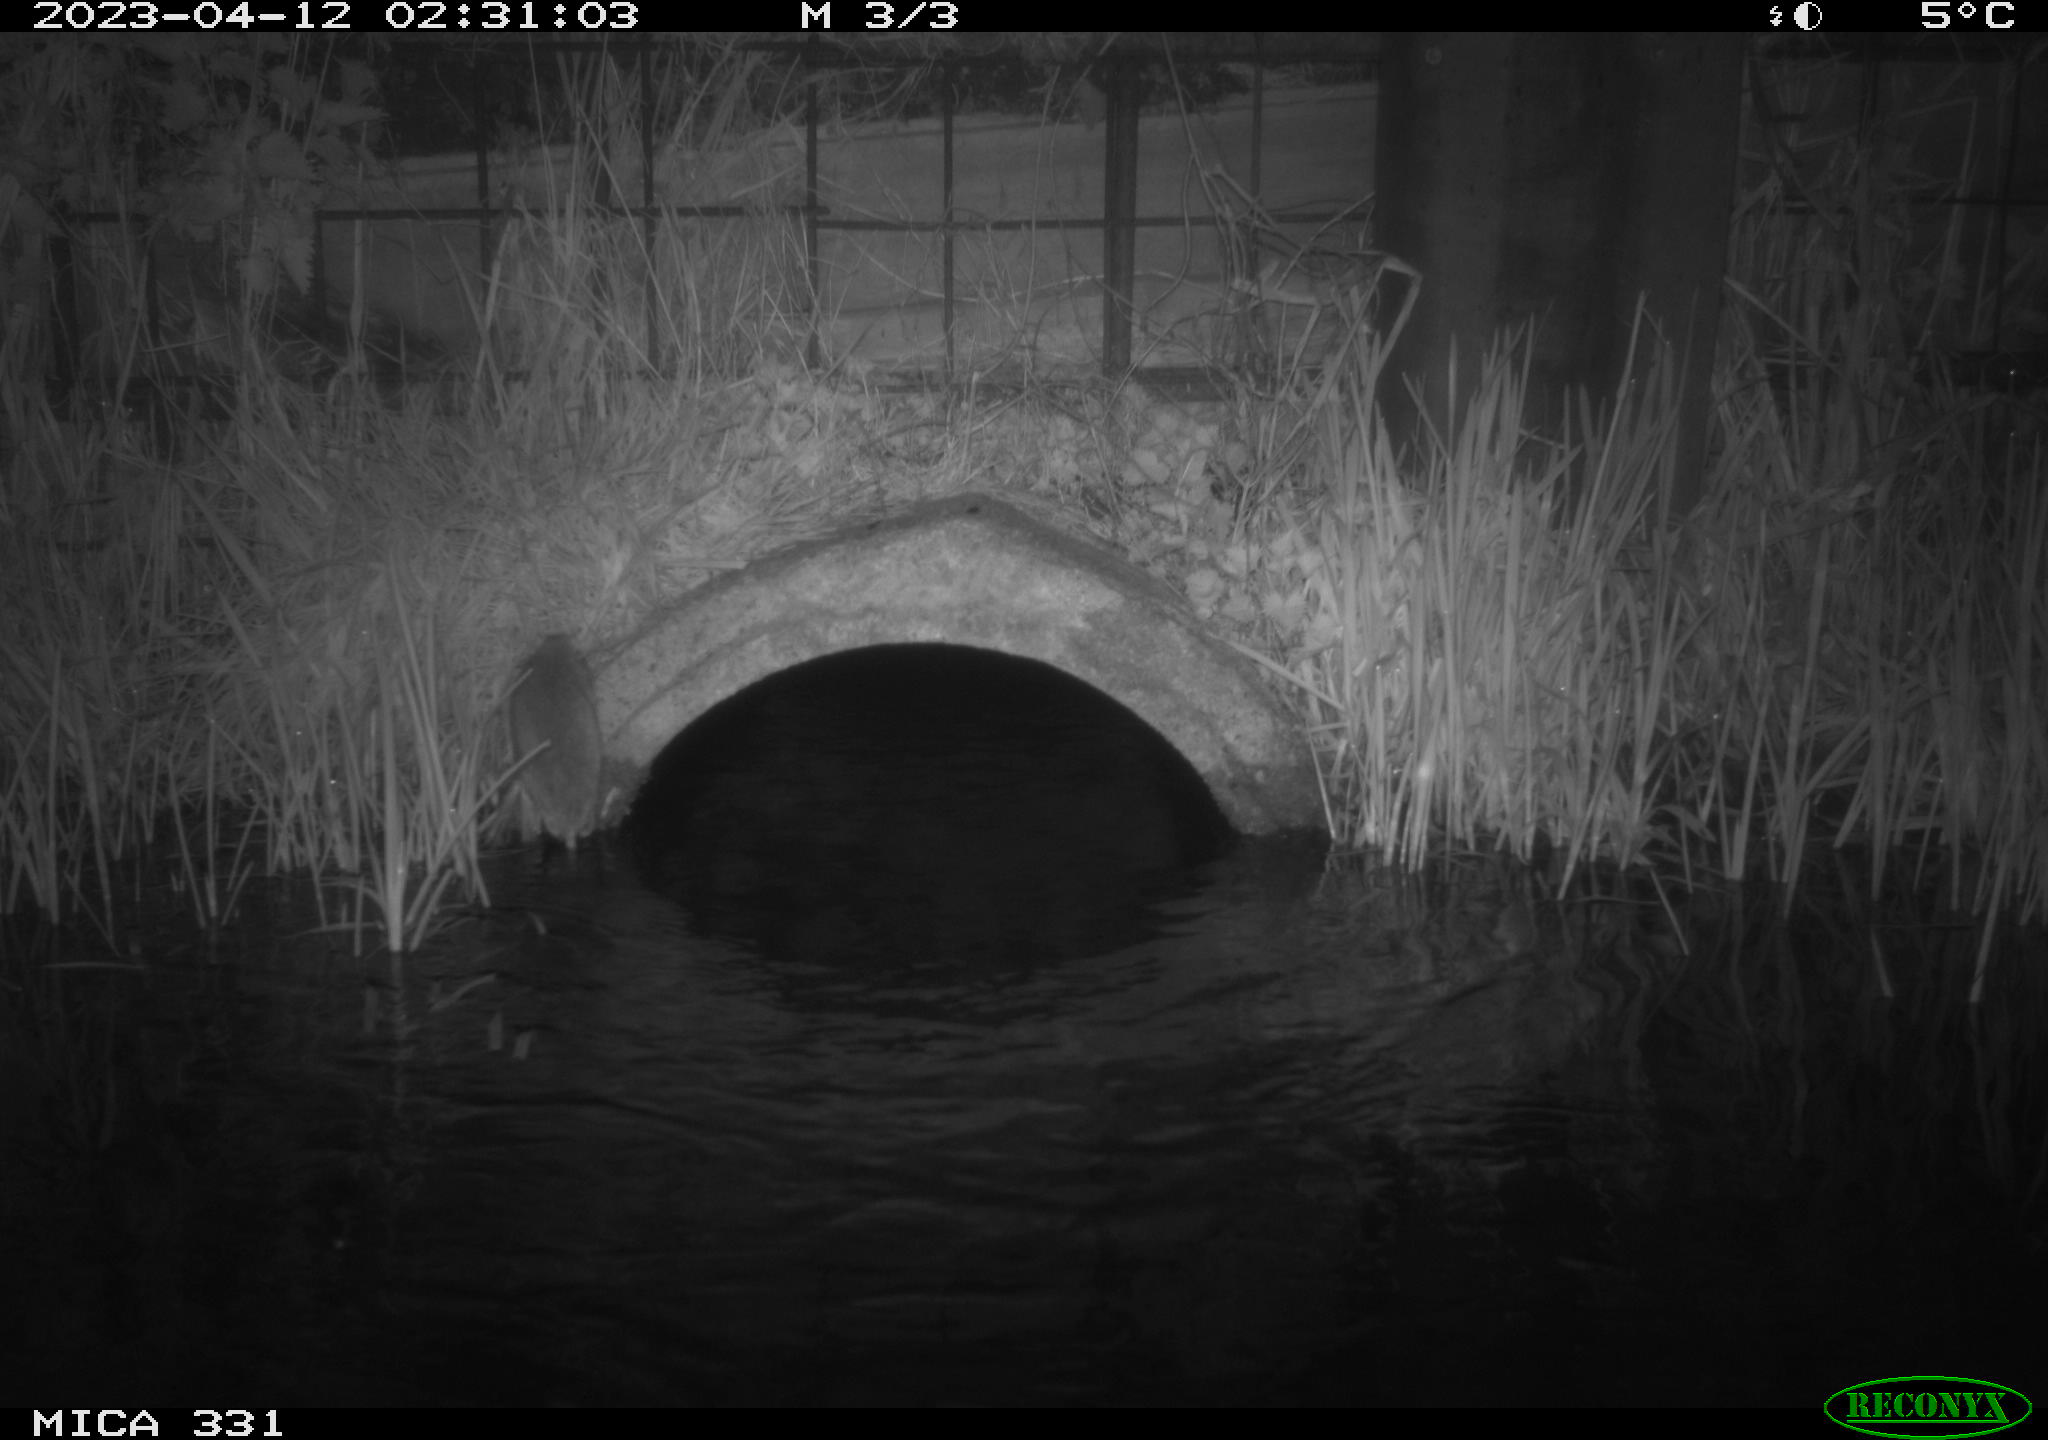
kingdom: Animalia
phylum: Chordata
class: Mammalia
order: Rodentia
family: Muridae
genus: Rattus
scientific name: Rattus norvegicus
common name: Brown rat
